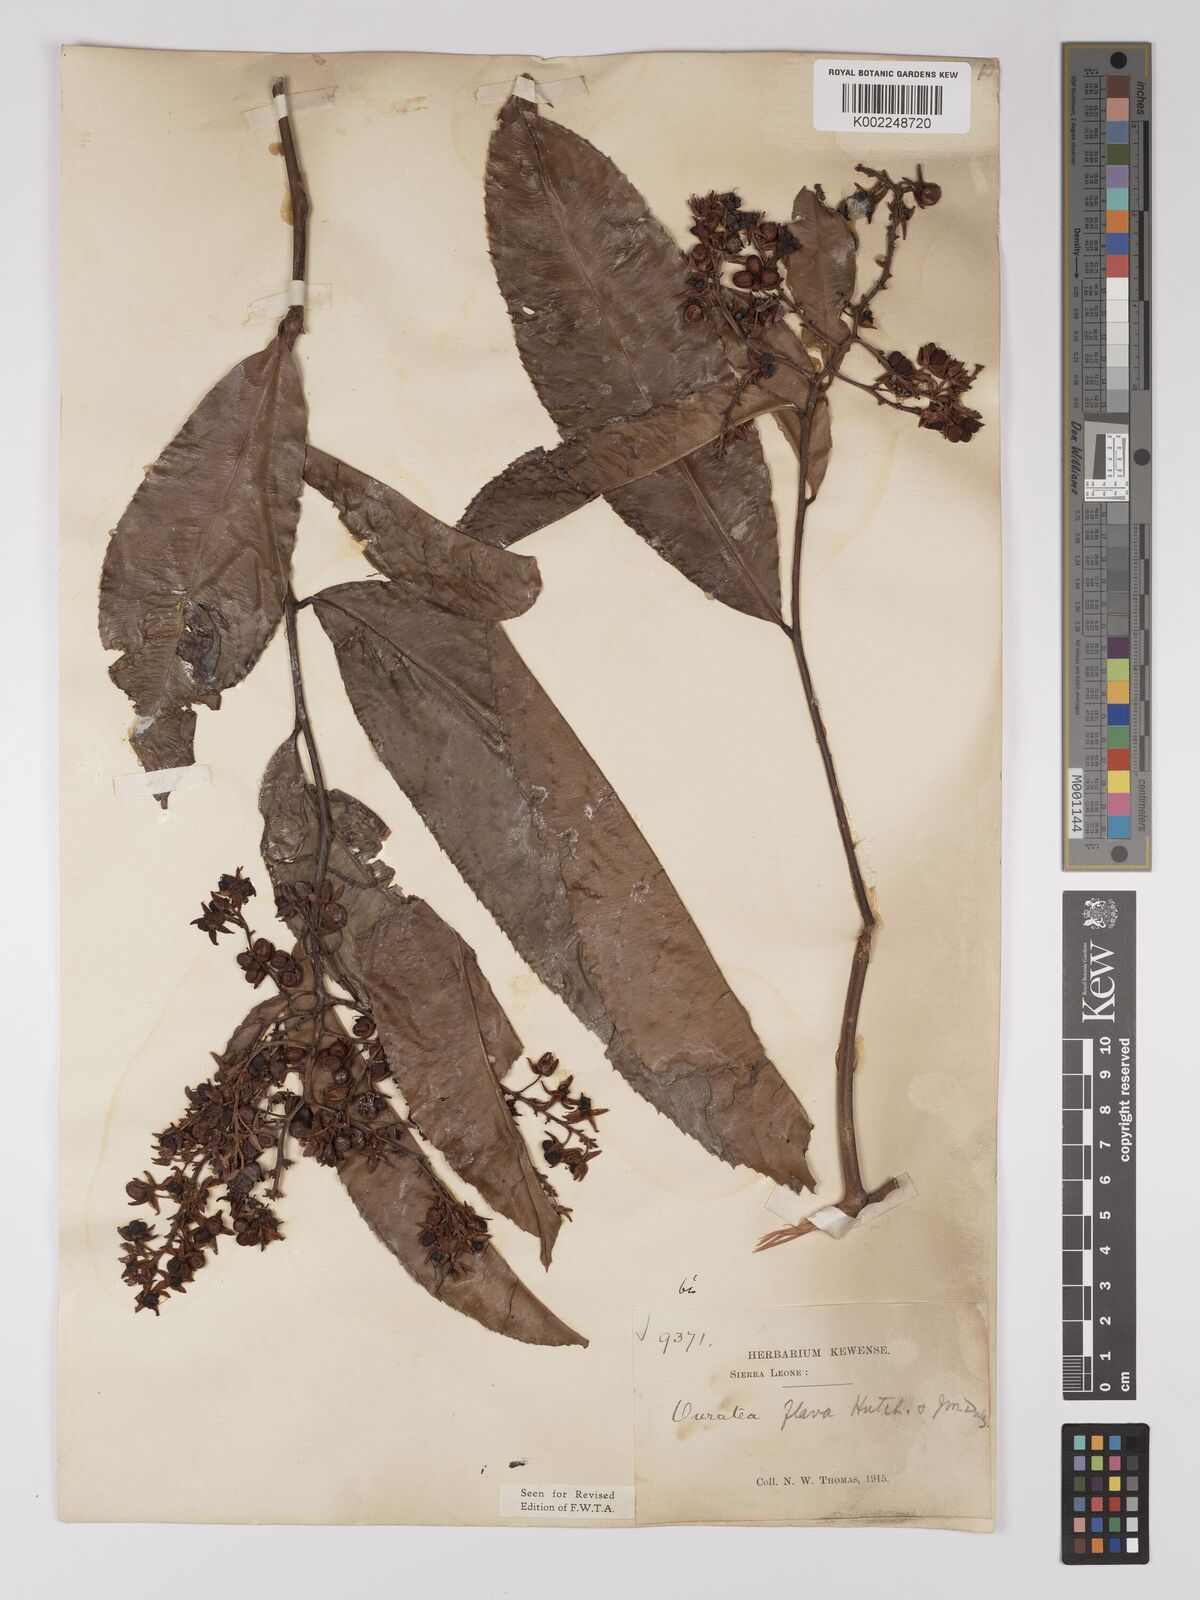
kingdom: Plantae
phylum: Tracheophyta
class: Magnoliopsida
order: Malpighiales
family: Ochnaceae
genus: Campylospermum
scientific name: Campylospermum flavum
